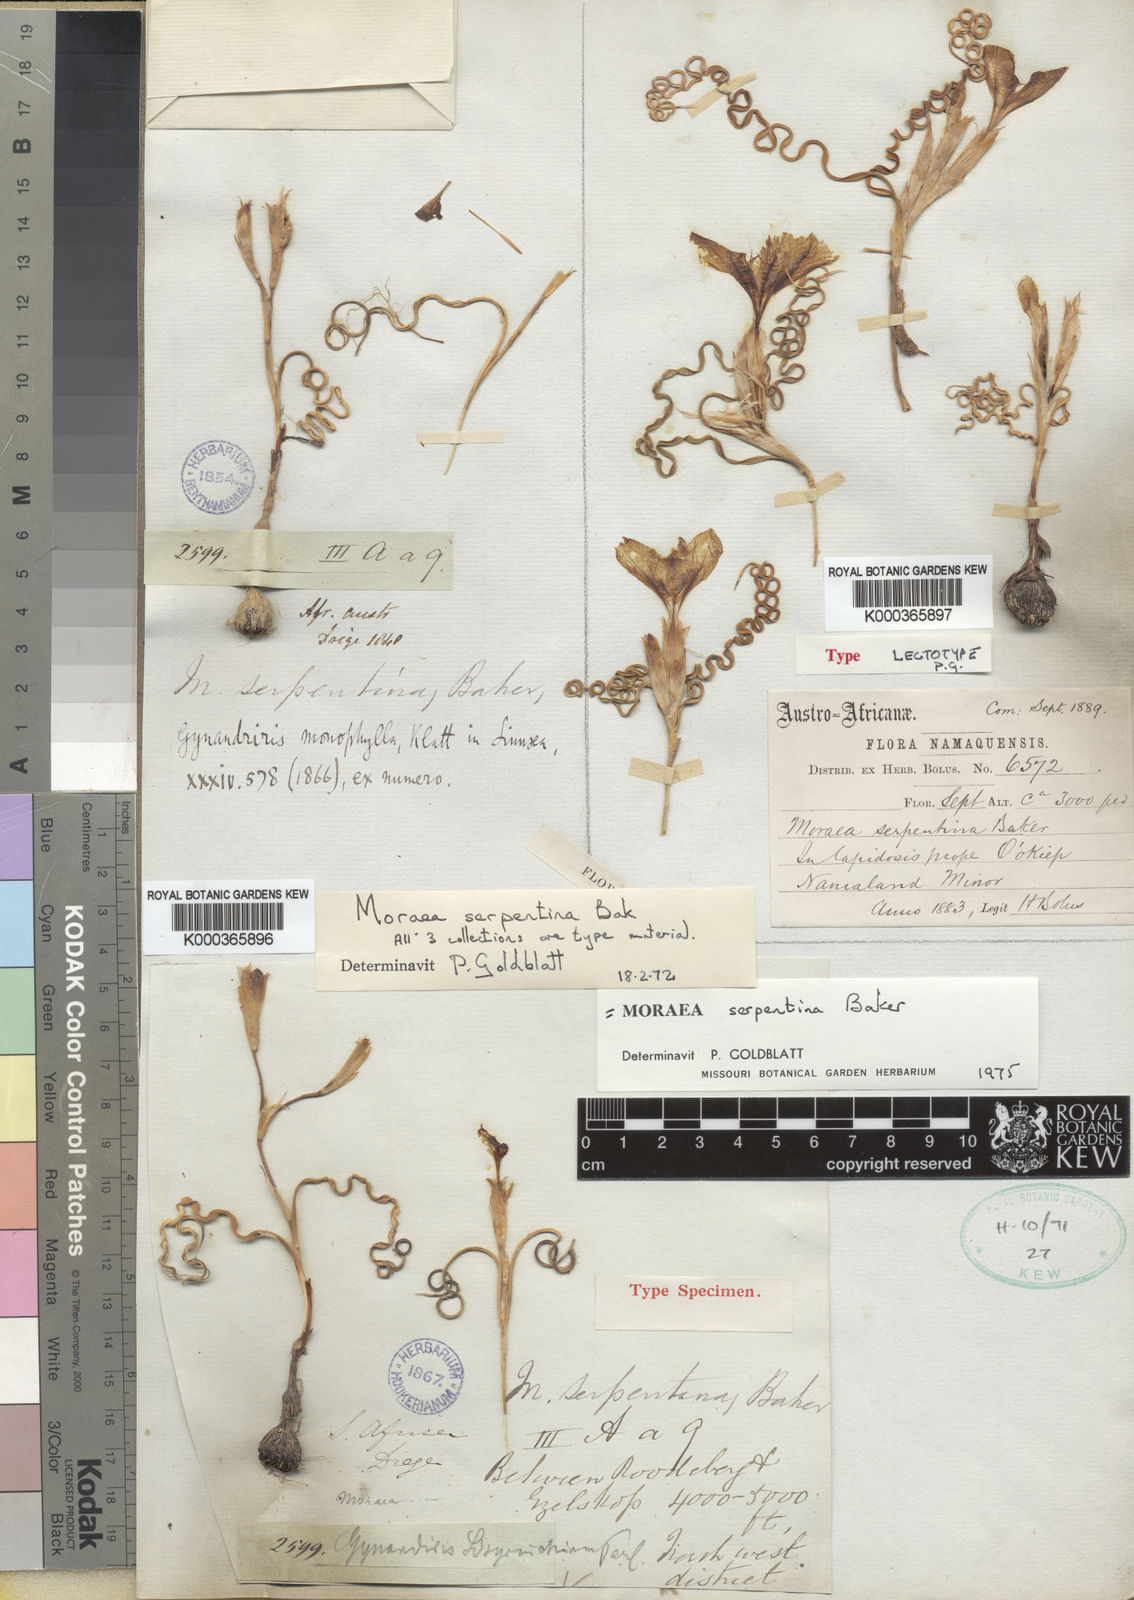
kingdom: Plantae
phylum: Tracheophyta
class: Liliopsida
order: Asparagales
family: Iridaceae
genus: Moraea
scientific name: Moraea serpentina
